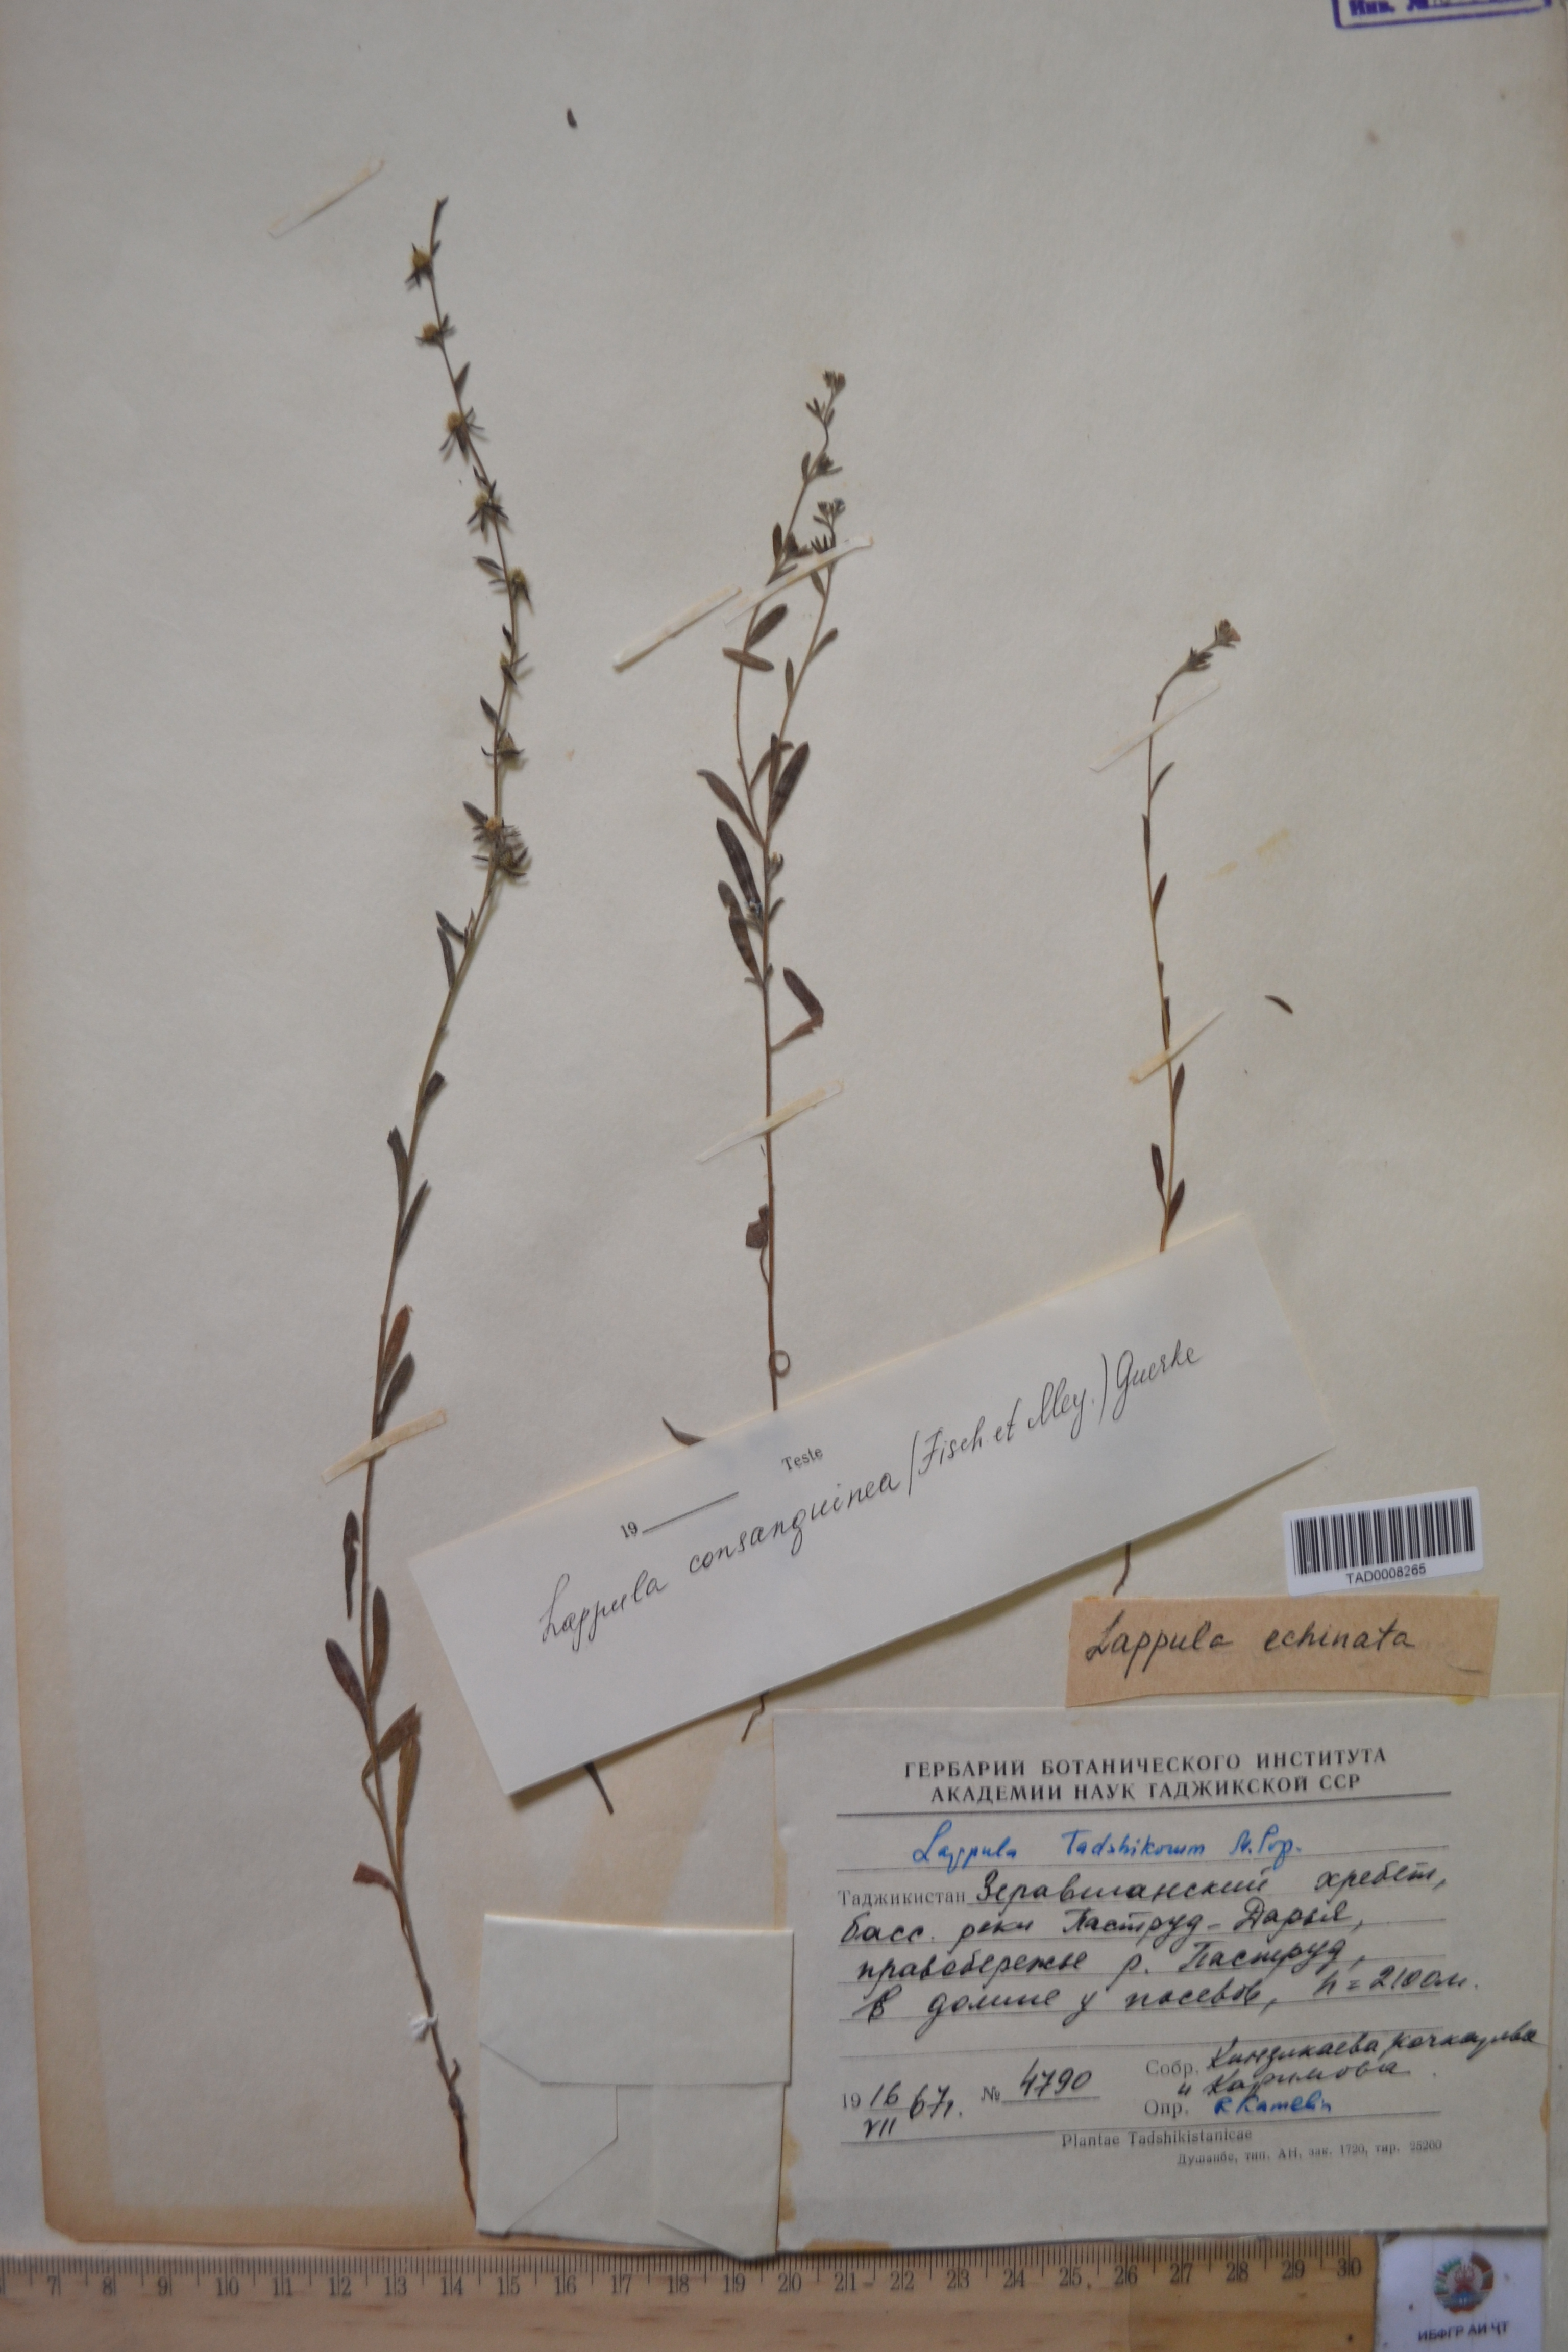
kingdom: Plantae
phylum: Tracheophyta
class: Magnoliopsida
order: Boraginales
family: Boraginaceae
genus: Lappula
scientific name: Lappula tadshikorum
